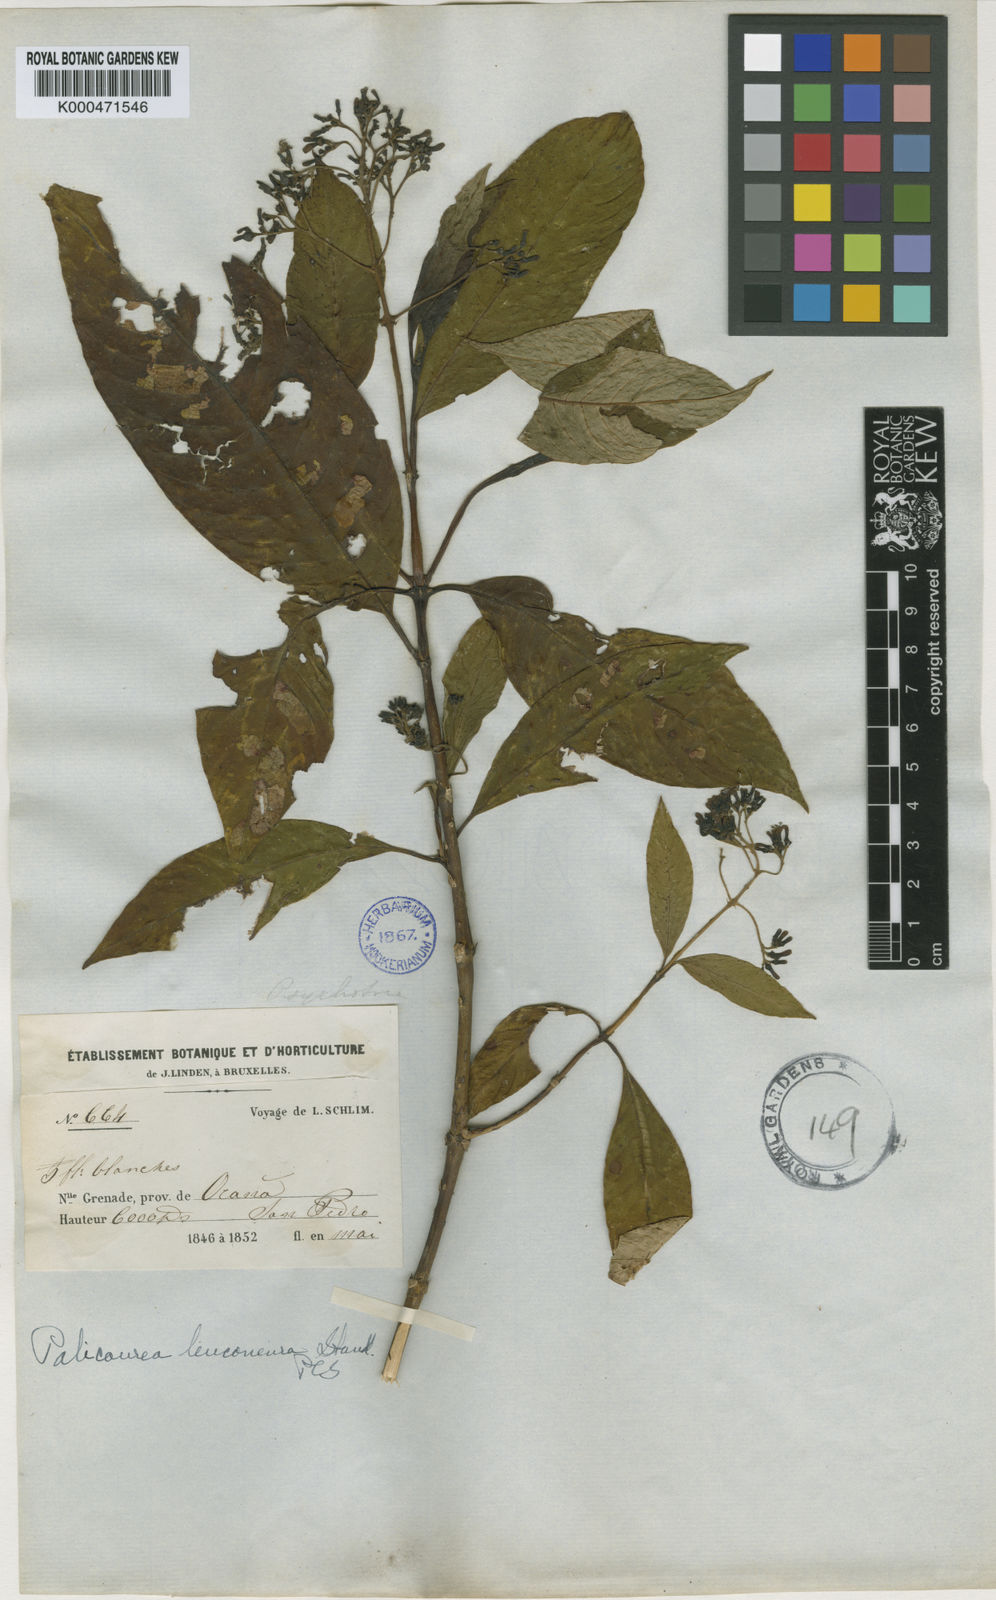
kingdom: Plantae
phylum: Tracheophyta
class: Magnoliopsida
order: Gentianales
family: Rubiaceae
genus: Palicourea
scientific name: Palicourea leuconeura
